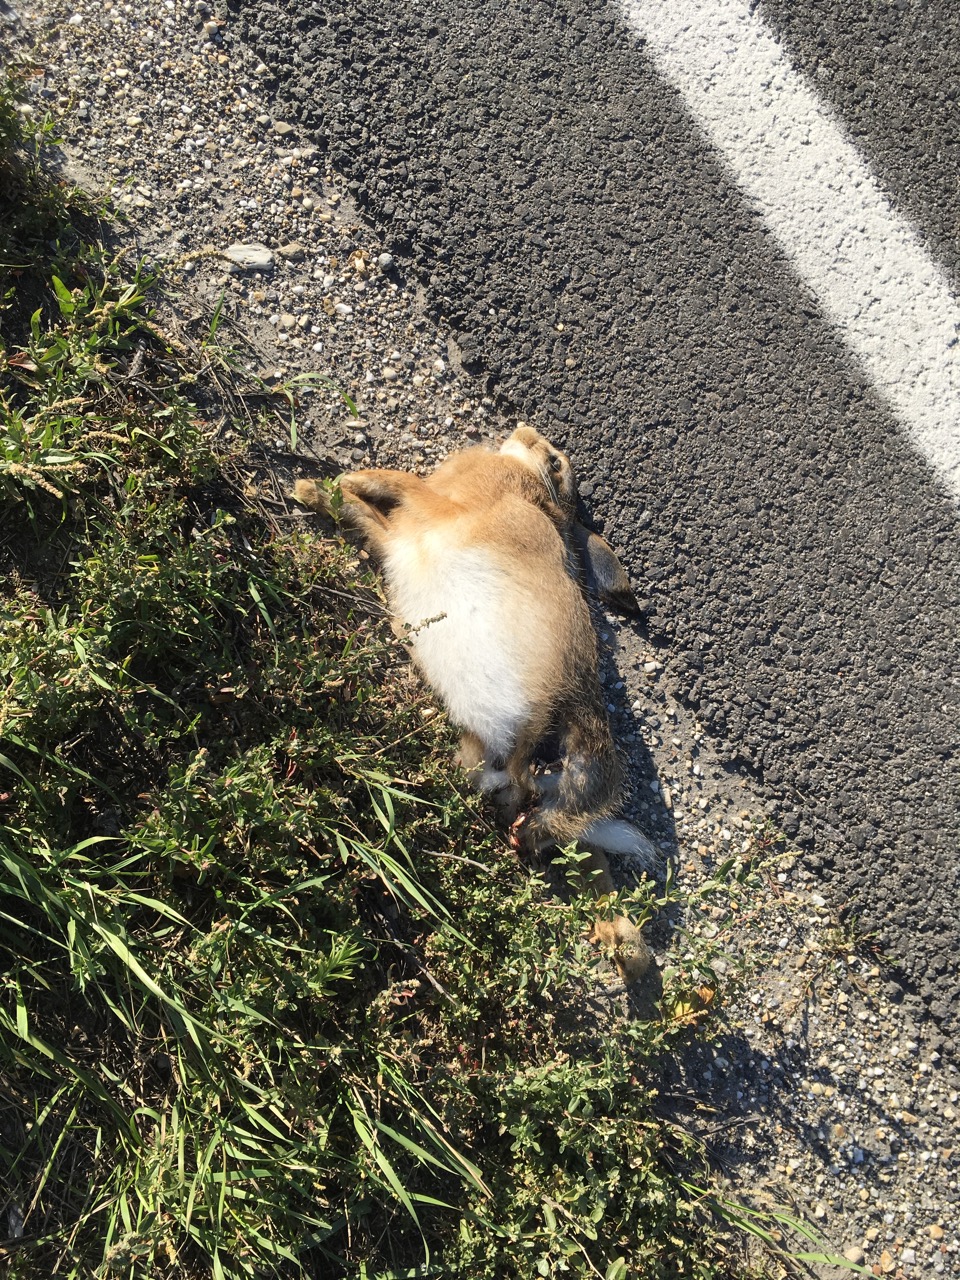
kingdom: Animalia
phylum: Chordata
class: Mammalia
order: Lagomorpha
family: Leporidae
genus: Lepus
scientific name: Lepus europaeus
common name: European hare
